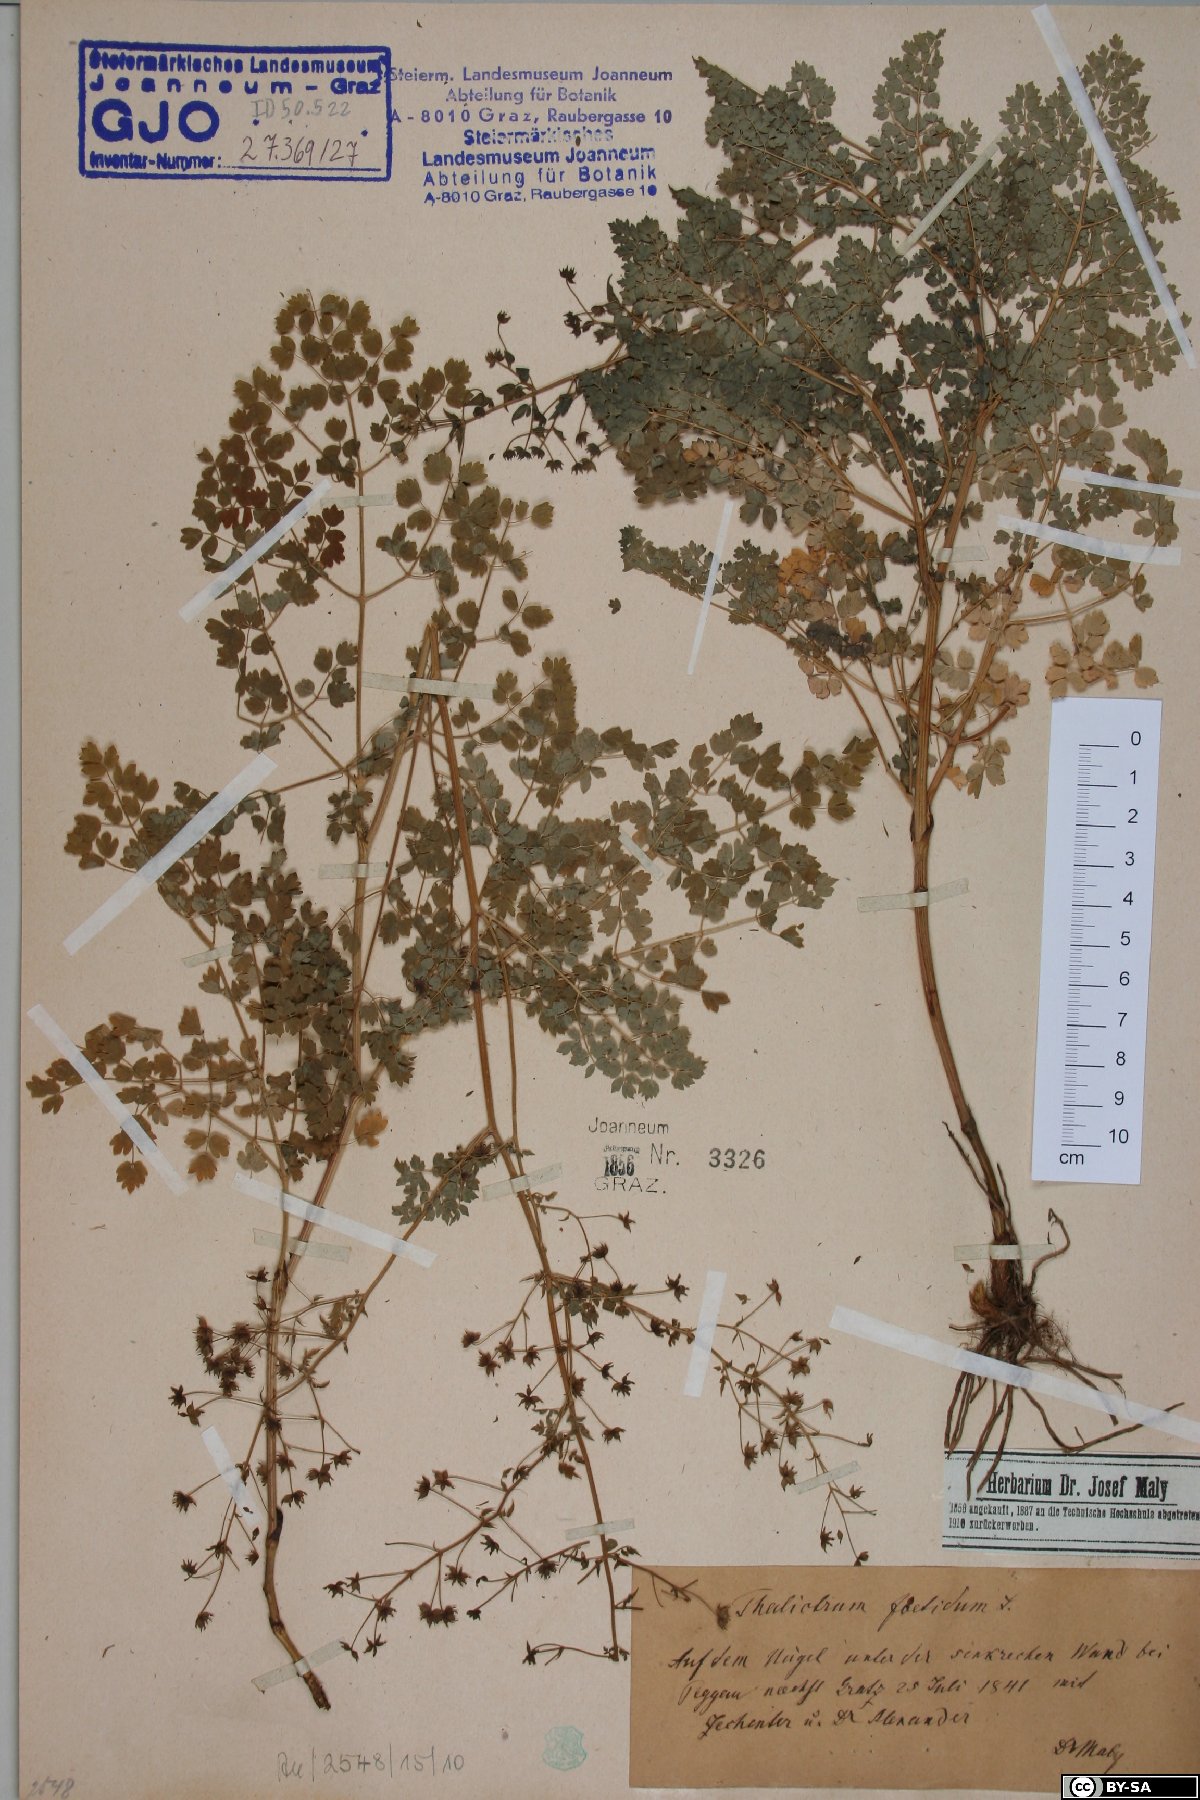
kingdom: Plantae
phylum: Tracheophyta
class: Magnoliopsida
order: Ranunculales
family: Ranunculaceae
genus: Thalictrum
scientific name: Thalictrum foetidum
